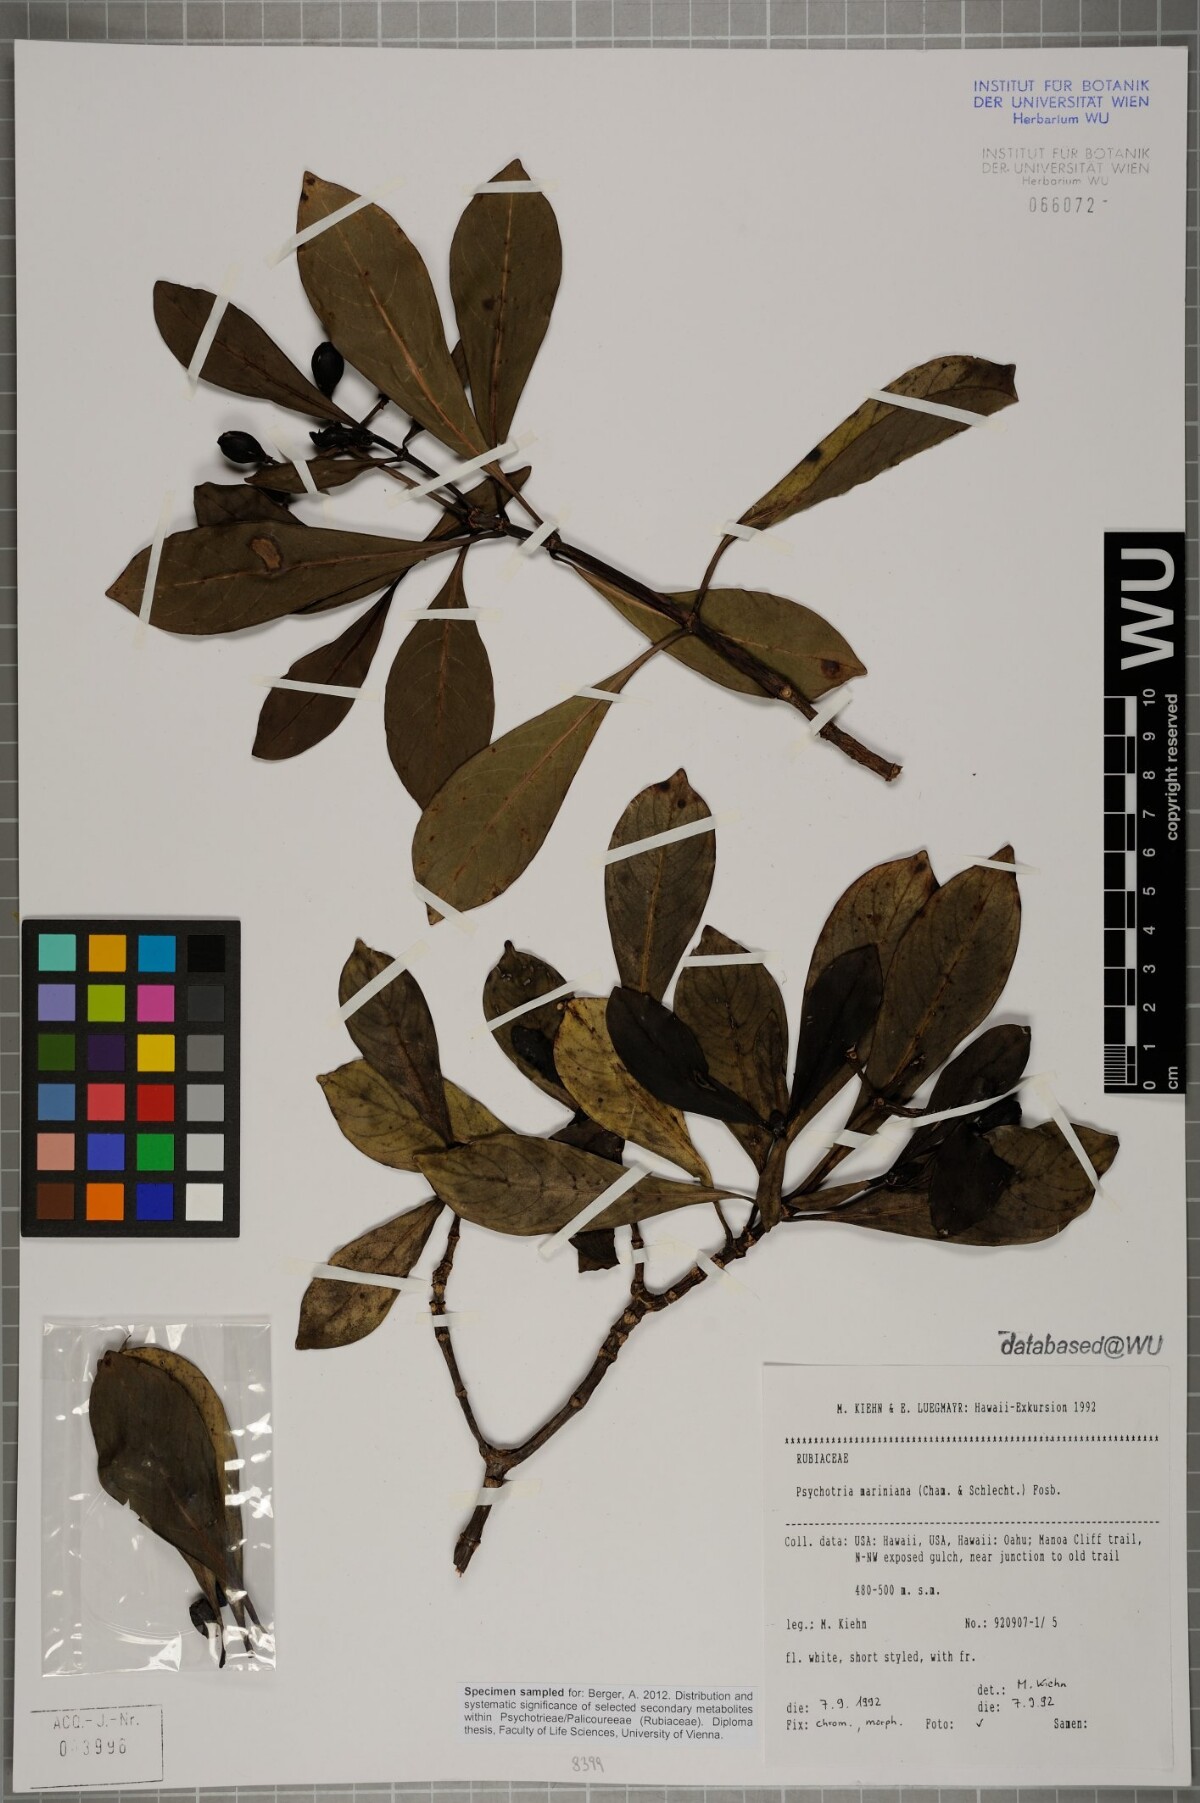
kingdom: Plantae
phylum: Tracheophyta
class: Magnoliopsida
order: Gentianales
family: Rubiaceae
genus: Psychotria
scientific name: Psychotria mariniana
